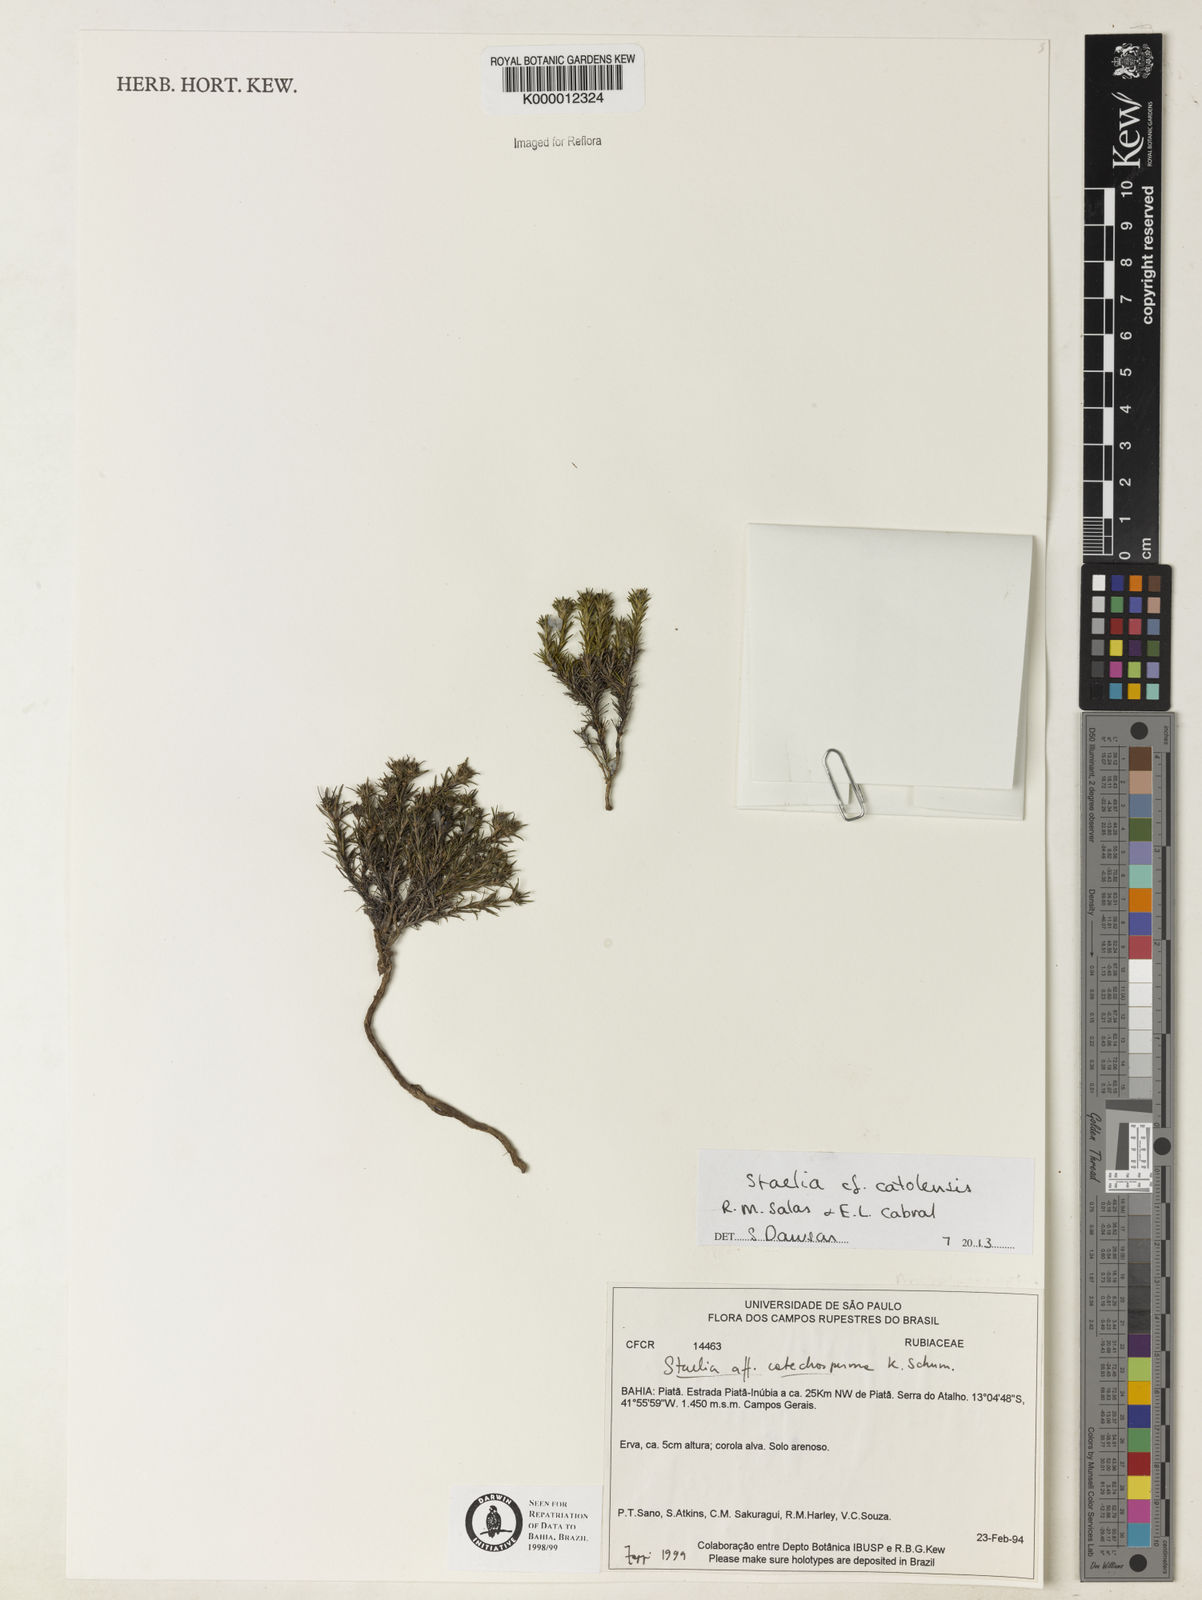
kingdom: Plantae
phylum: Tracheophyta
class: Magnoliopsida
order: Gentianales
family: Rubiaceae
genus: Anthospermopsis
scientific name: Anthospermopsis catechosperma
